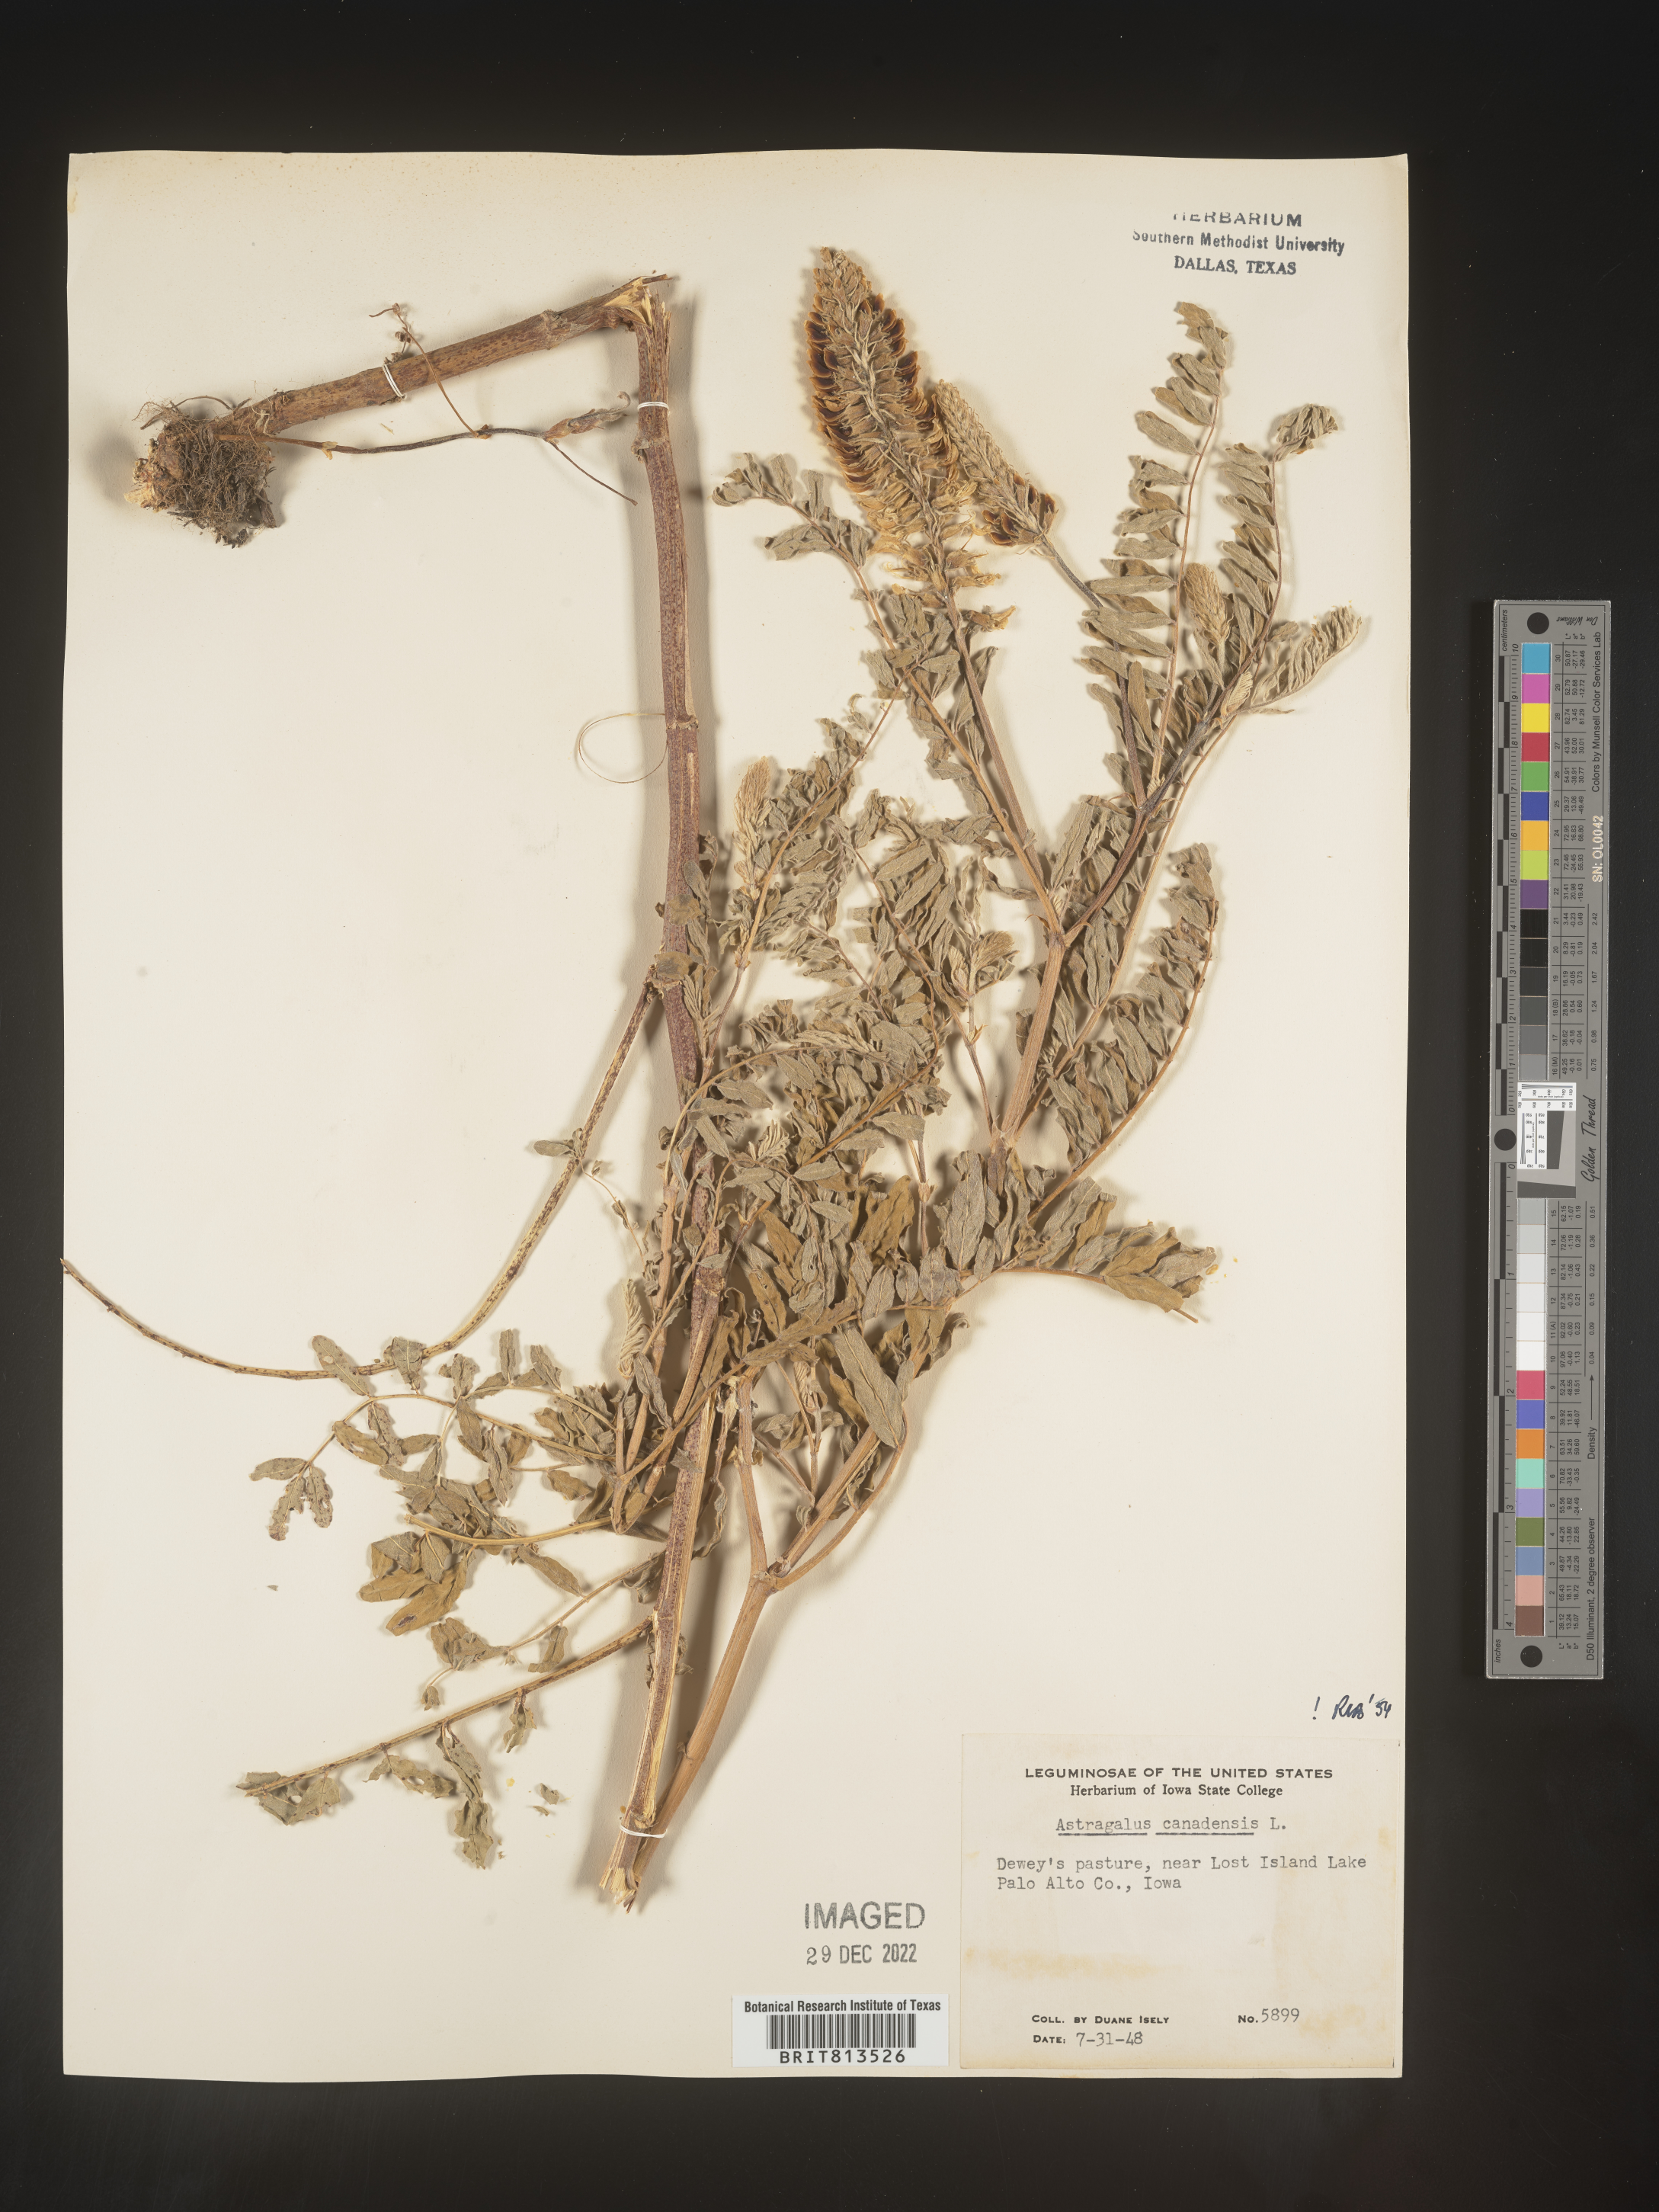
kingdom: Plantae
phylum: Tracheophyta
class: Magnoliopsida
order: Fabales
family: Fabaceae
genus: Astragalus
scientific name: Astragalus canadensis
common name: Canada milk-vetch
